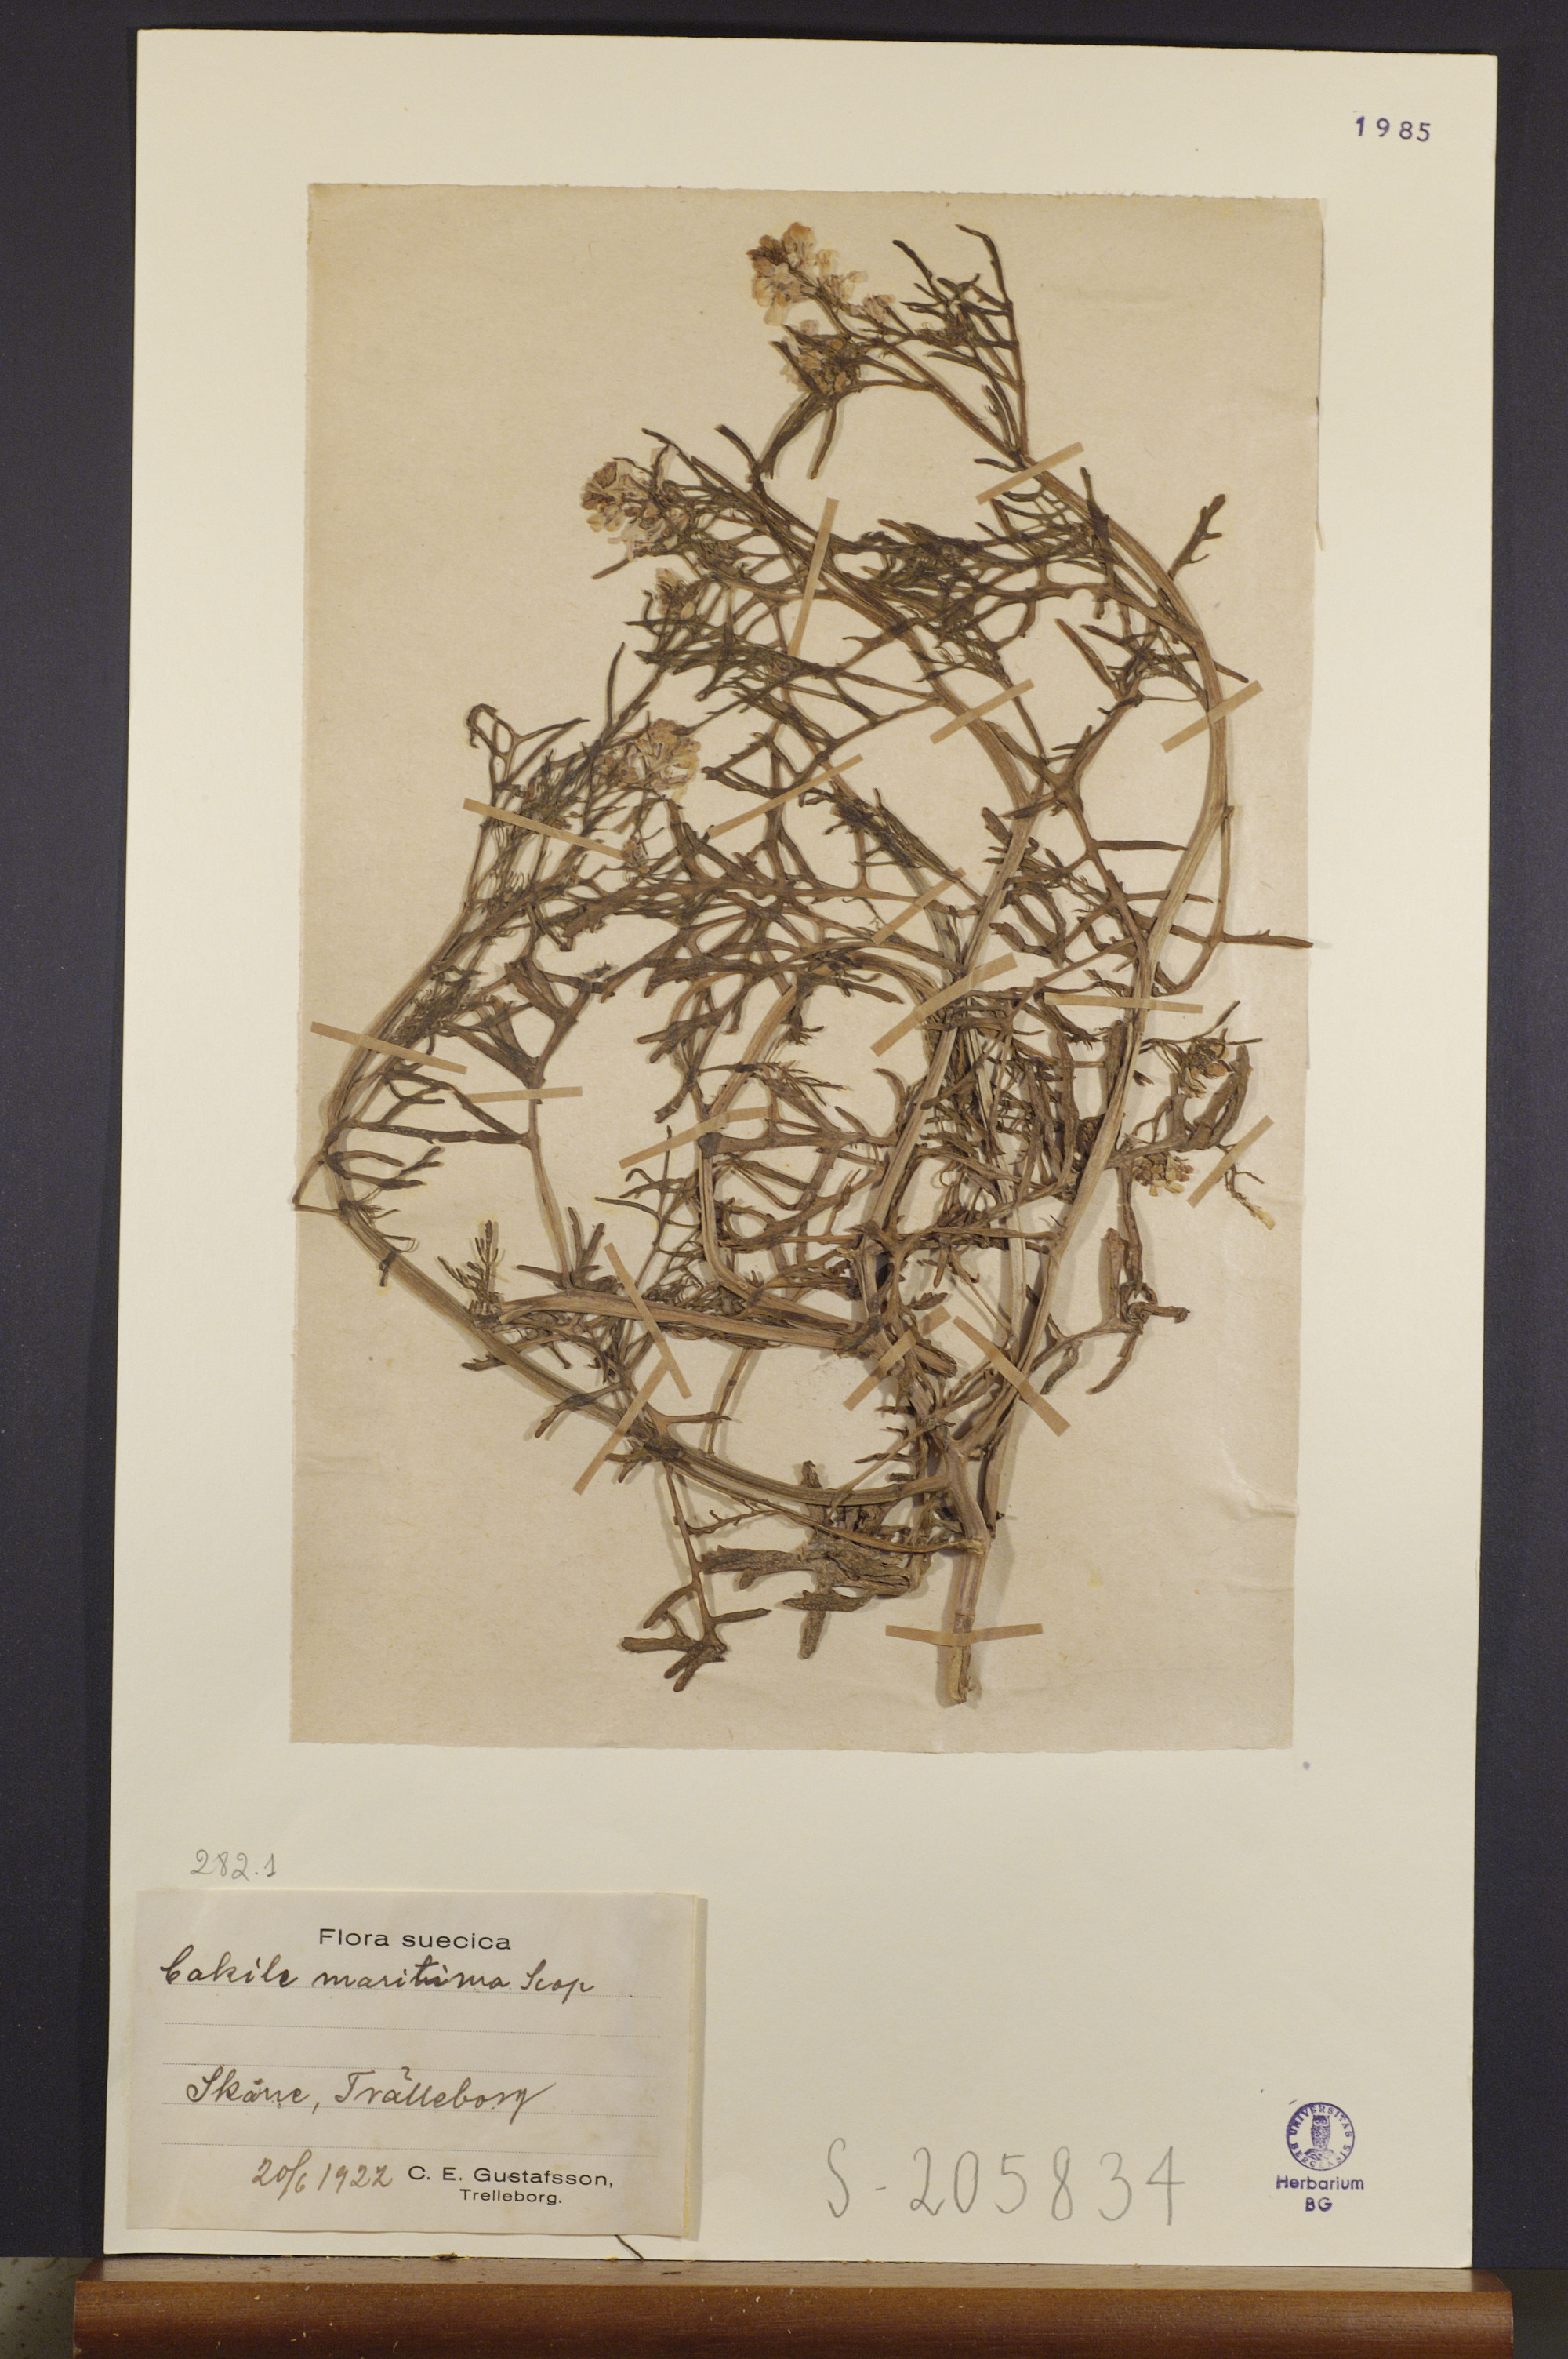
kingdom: Plantae
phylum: Tracheophyta
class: Magnoliopsida
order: Brassicales
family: Brassicaceae
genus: Cakile
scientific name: Cakile maritima
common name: Sea rocket
